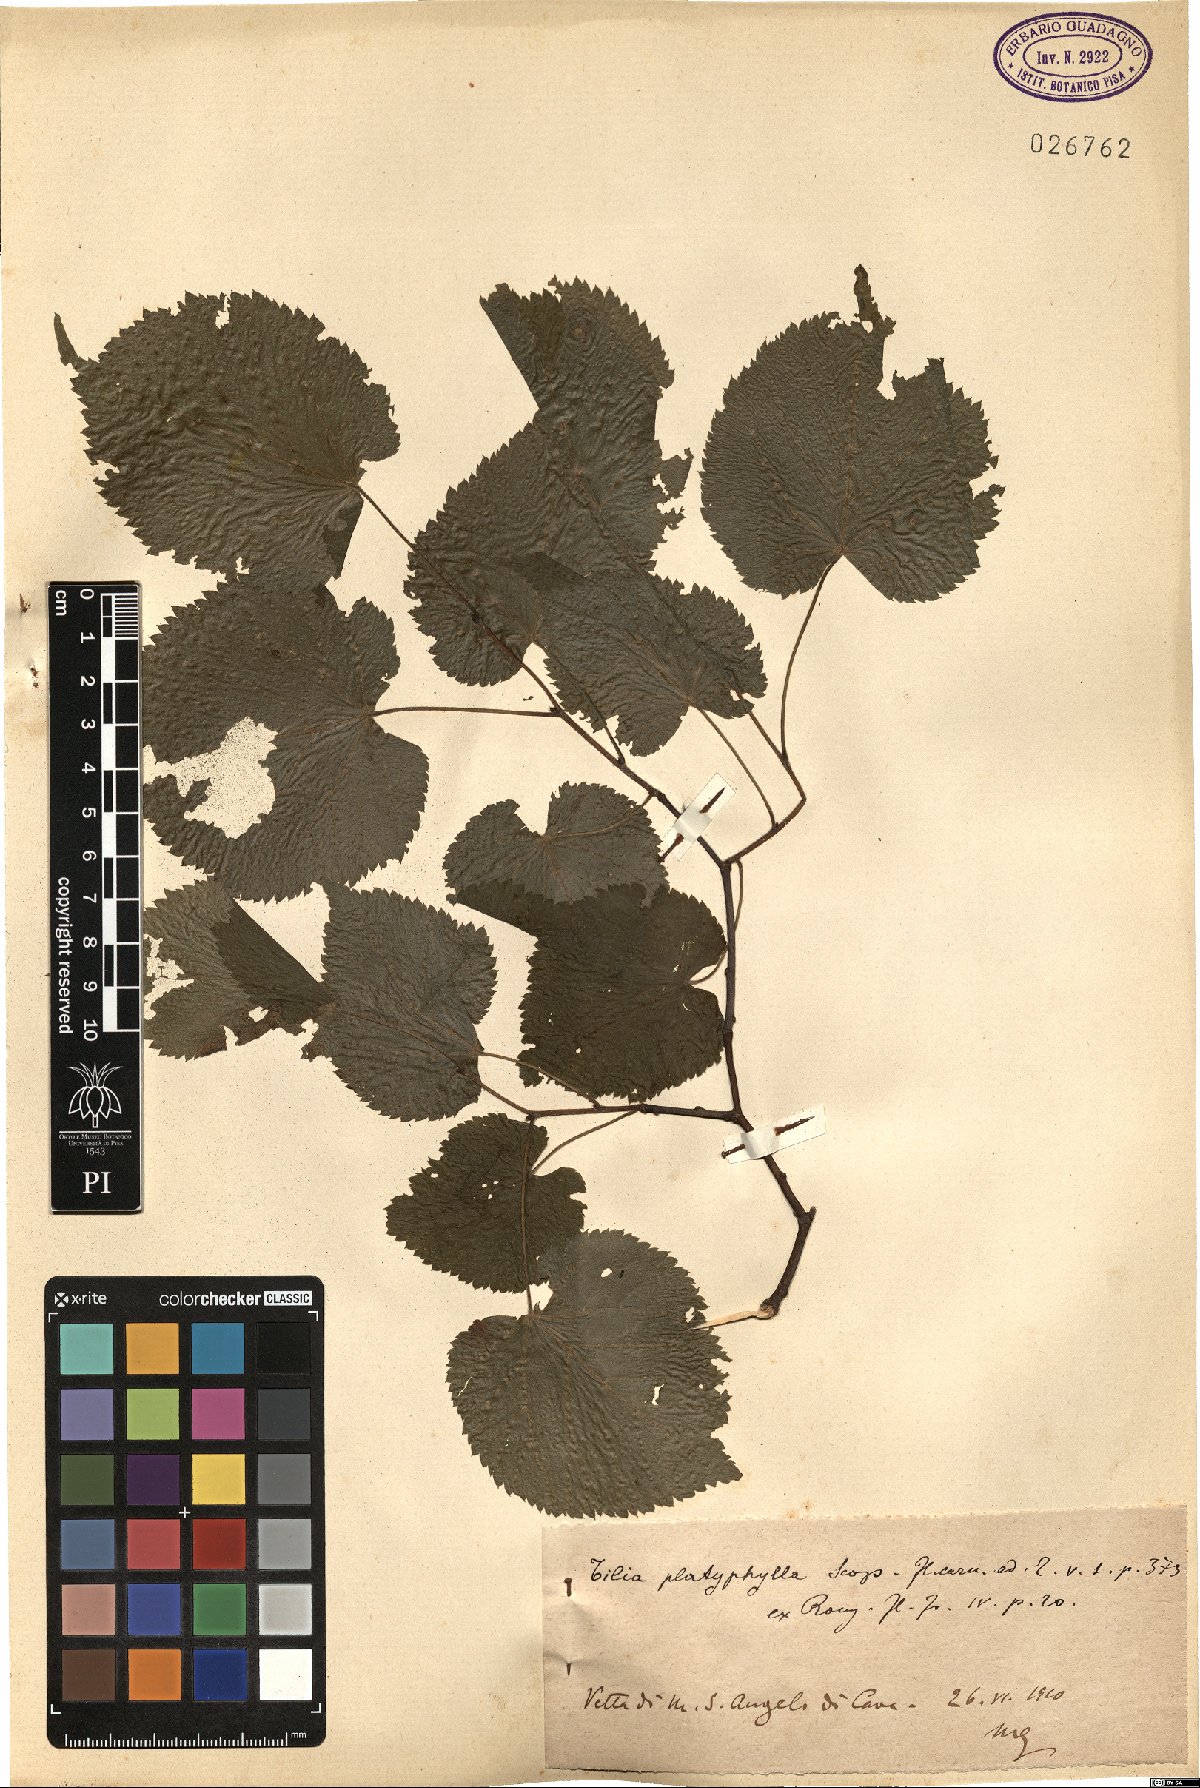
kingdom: Plantae
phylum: Tracheophyta
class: Magnoliopsida
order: Malvales
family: Malvaceae
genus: Tilia
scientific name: Tilia platyphyllos
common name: Large-leaved lime
